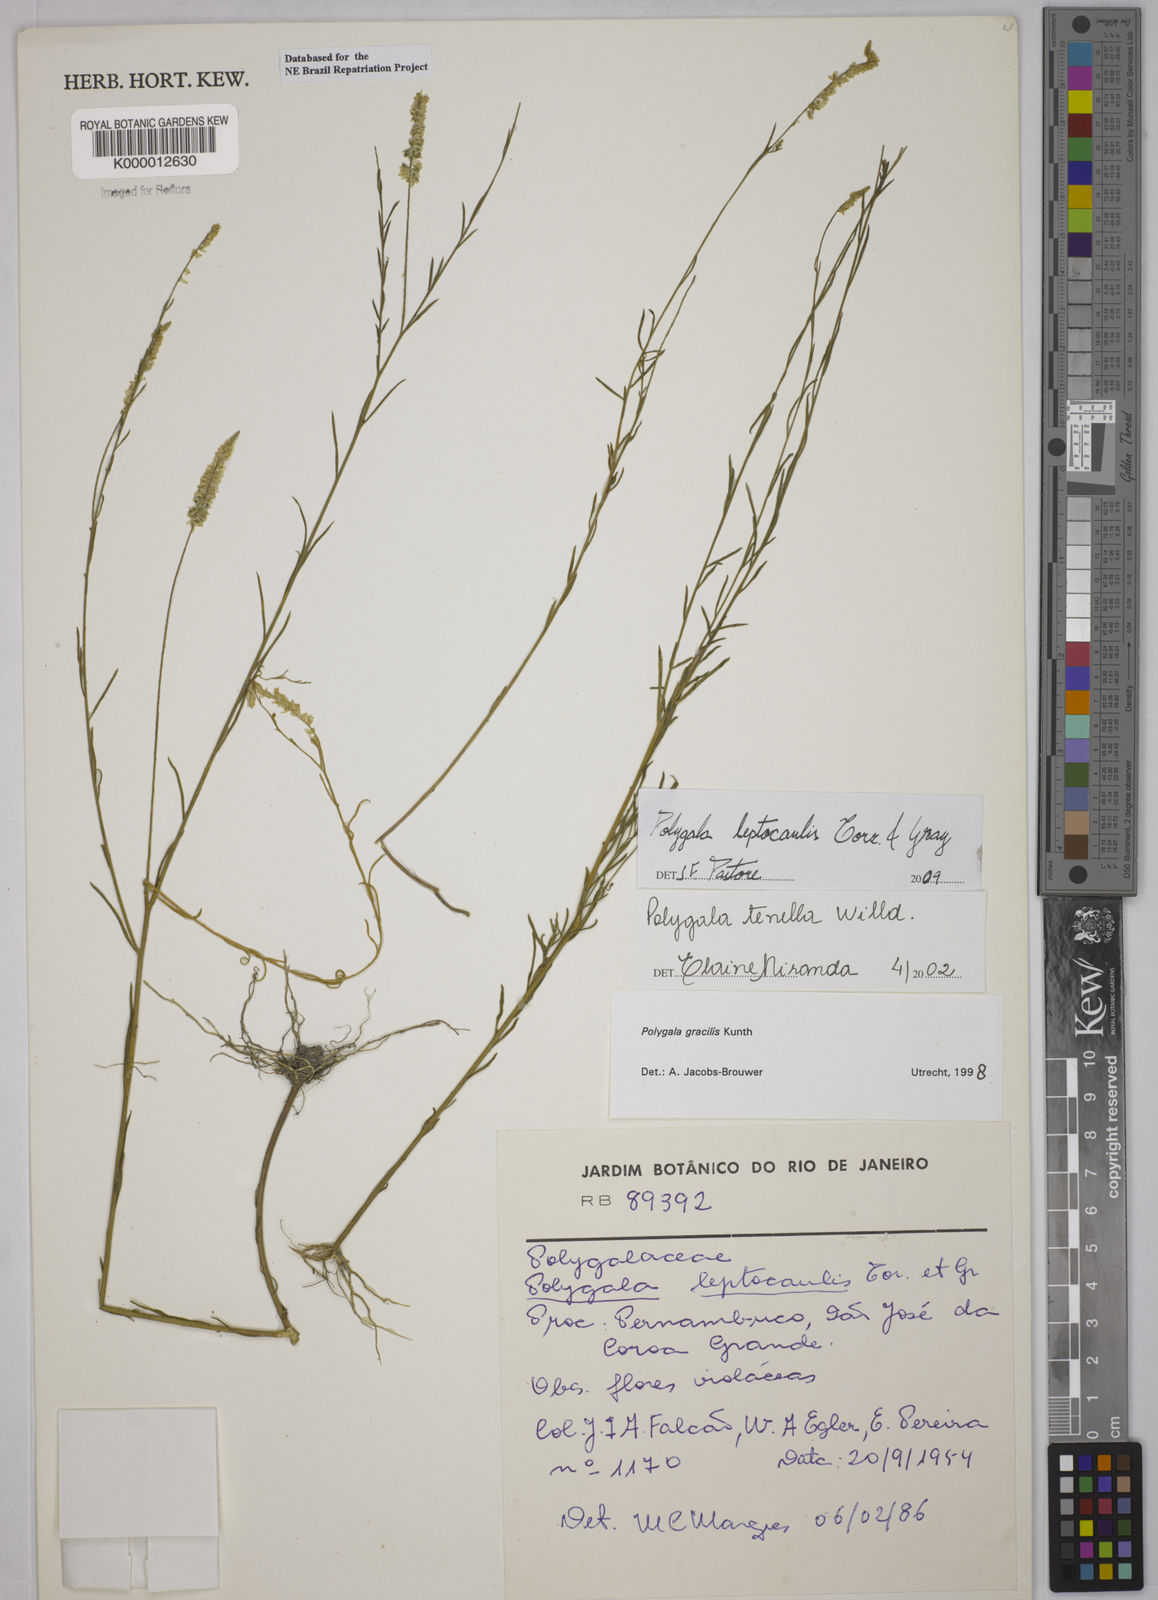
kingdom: Plantae
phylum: Tracheophyta
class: Magnoliopsida
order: Fabales
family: Polygalaceae
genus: Polygala
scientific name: Polygala tenella
